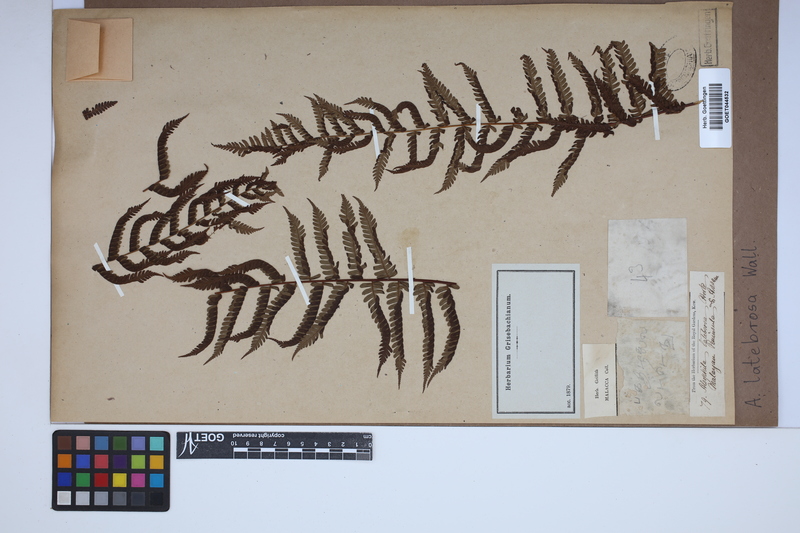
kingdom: Plantae
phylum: Tracheophyta
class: Polypodiopsida
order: Cyatheales
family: Cyatheaceae
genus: Alsophila
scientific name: Alsophila nilgirensis
